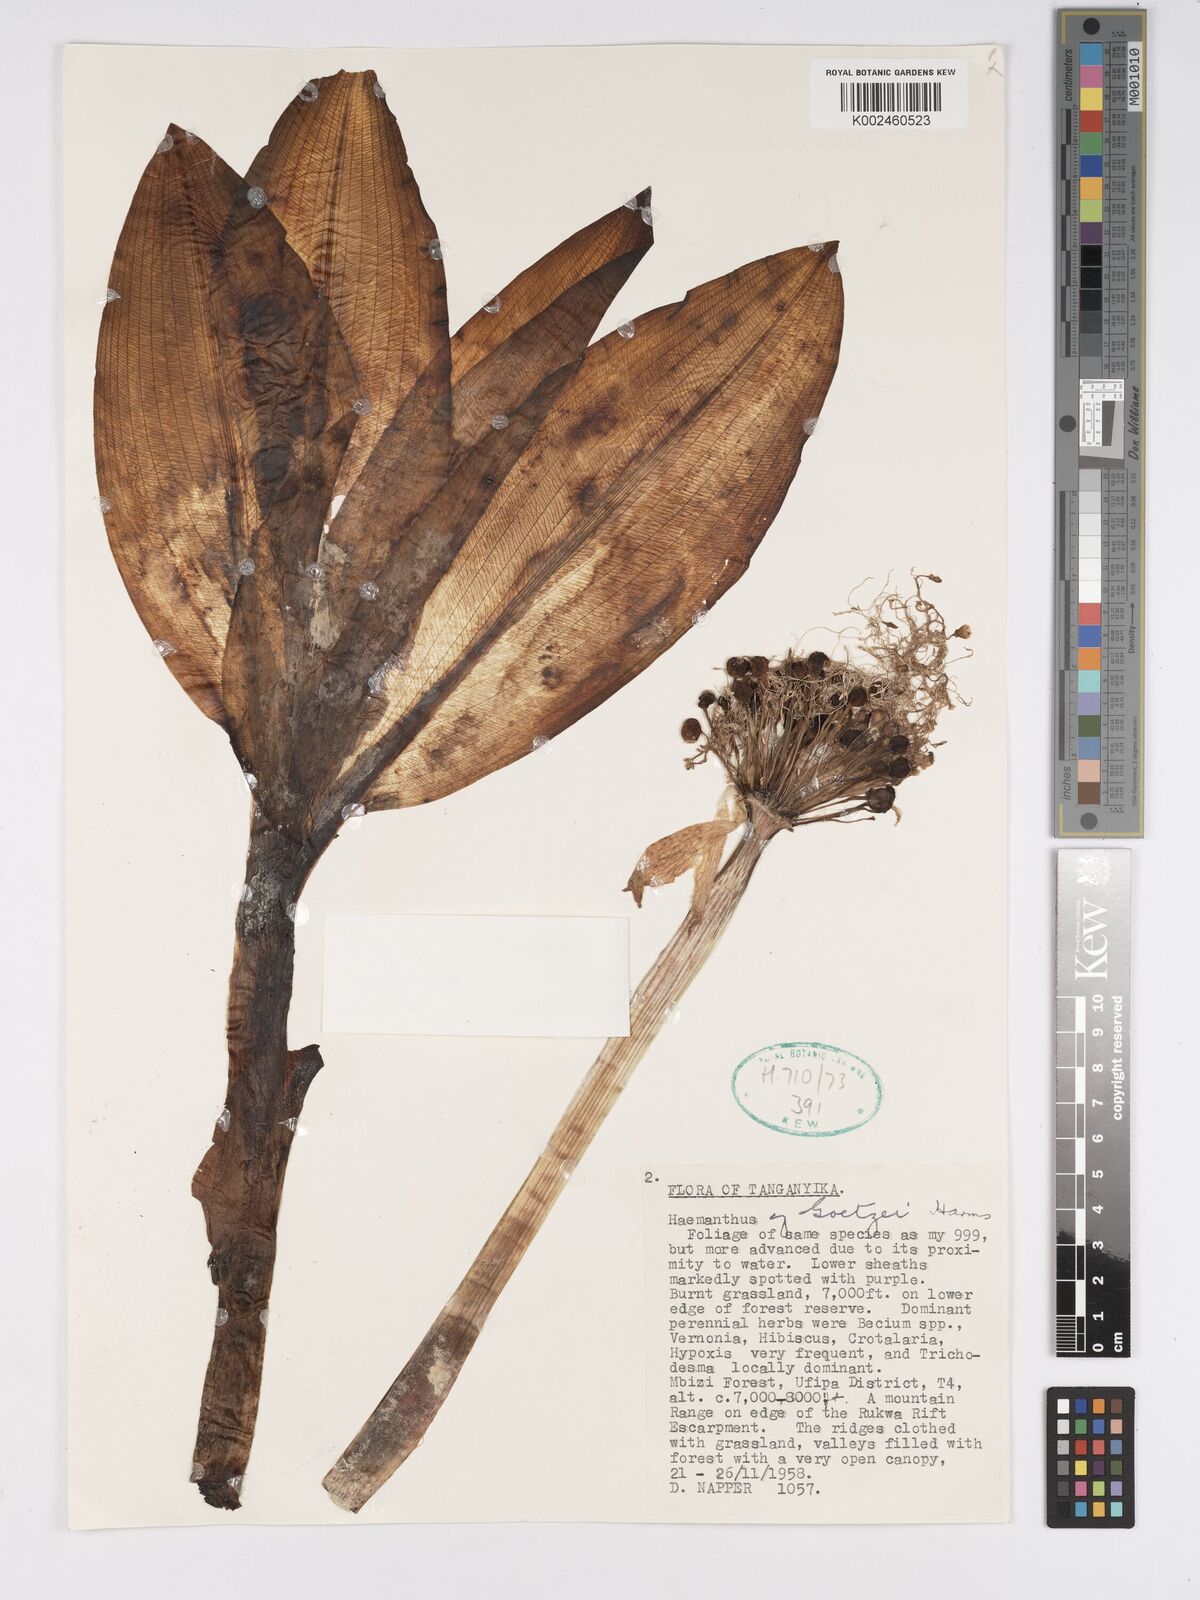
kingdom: Plantae
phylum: Tracheophyta
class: Liliopsida
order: Asparagales
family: Amaryllidaceae
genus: Scadoxus
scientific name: Scadoxus puniceus
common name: Royal-paintbrush
